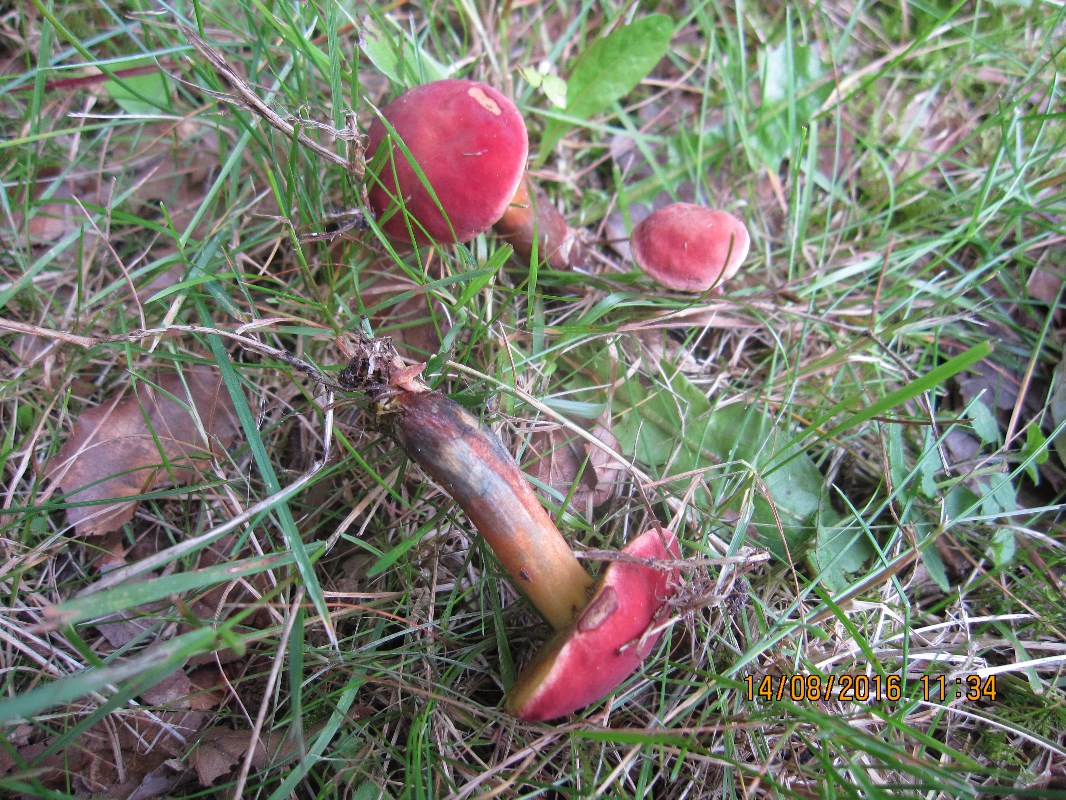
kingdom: Fungi
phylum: Basidiomycota
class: Agaricomycetes
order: Boletales
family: Boletaceae
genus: Hortiboletus
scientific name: Hortiboletus rubellus
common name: blodrød rørhat
